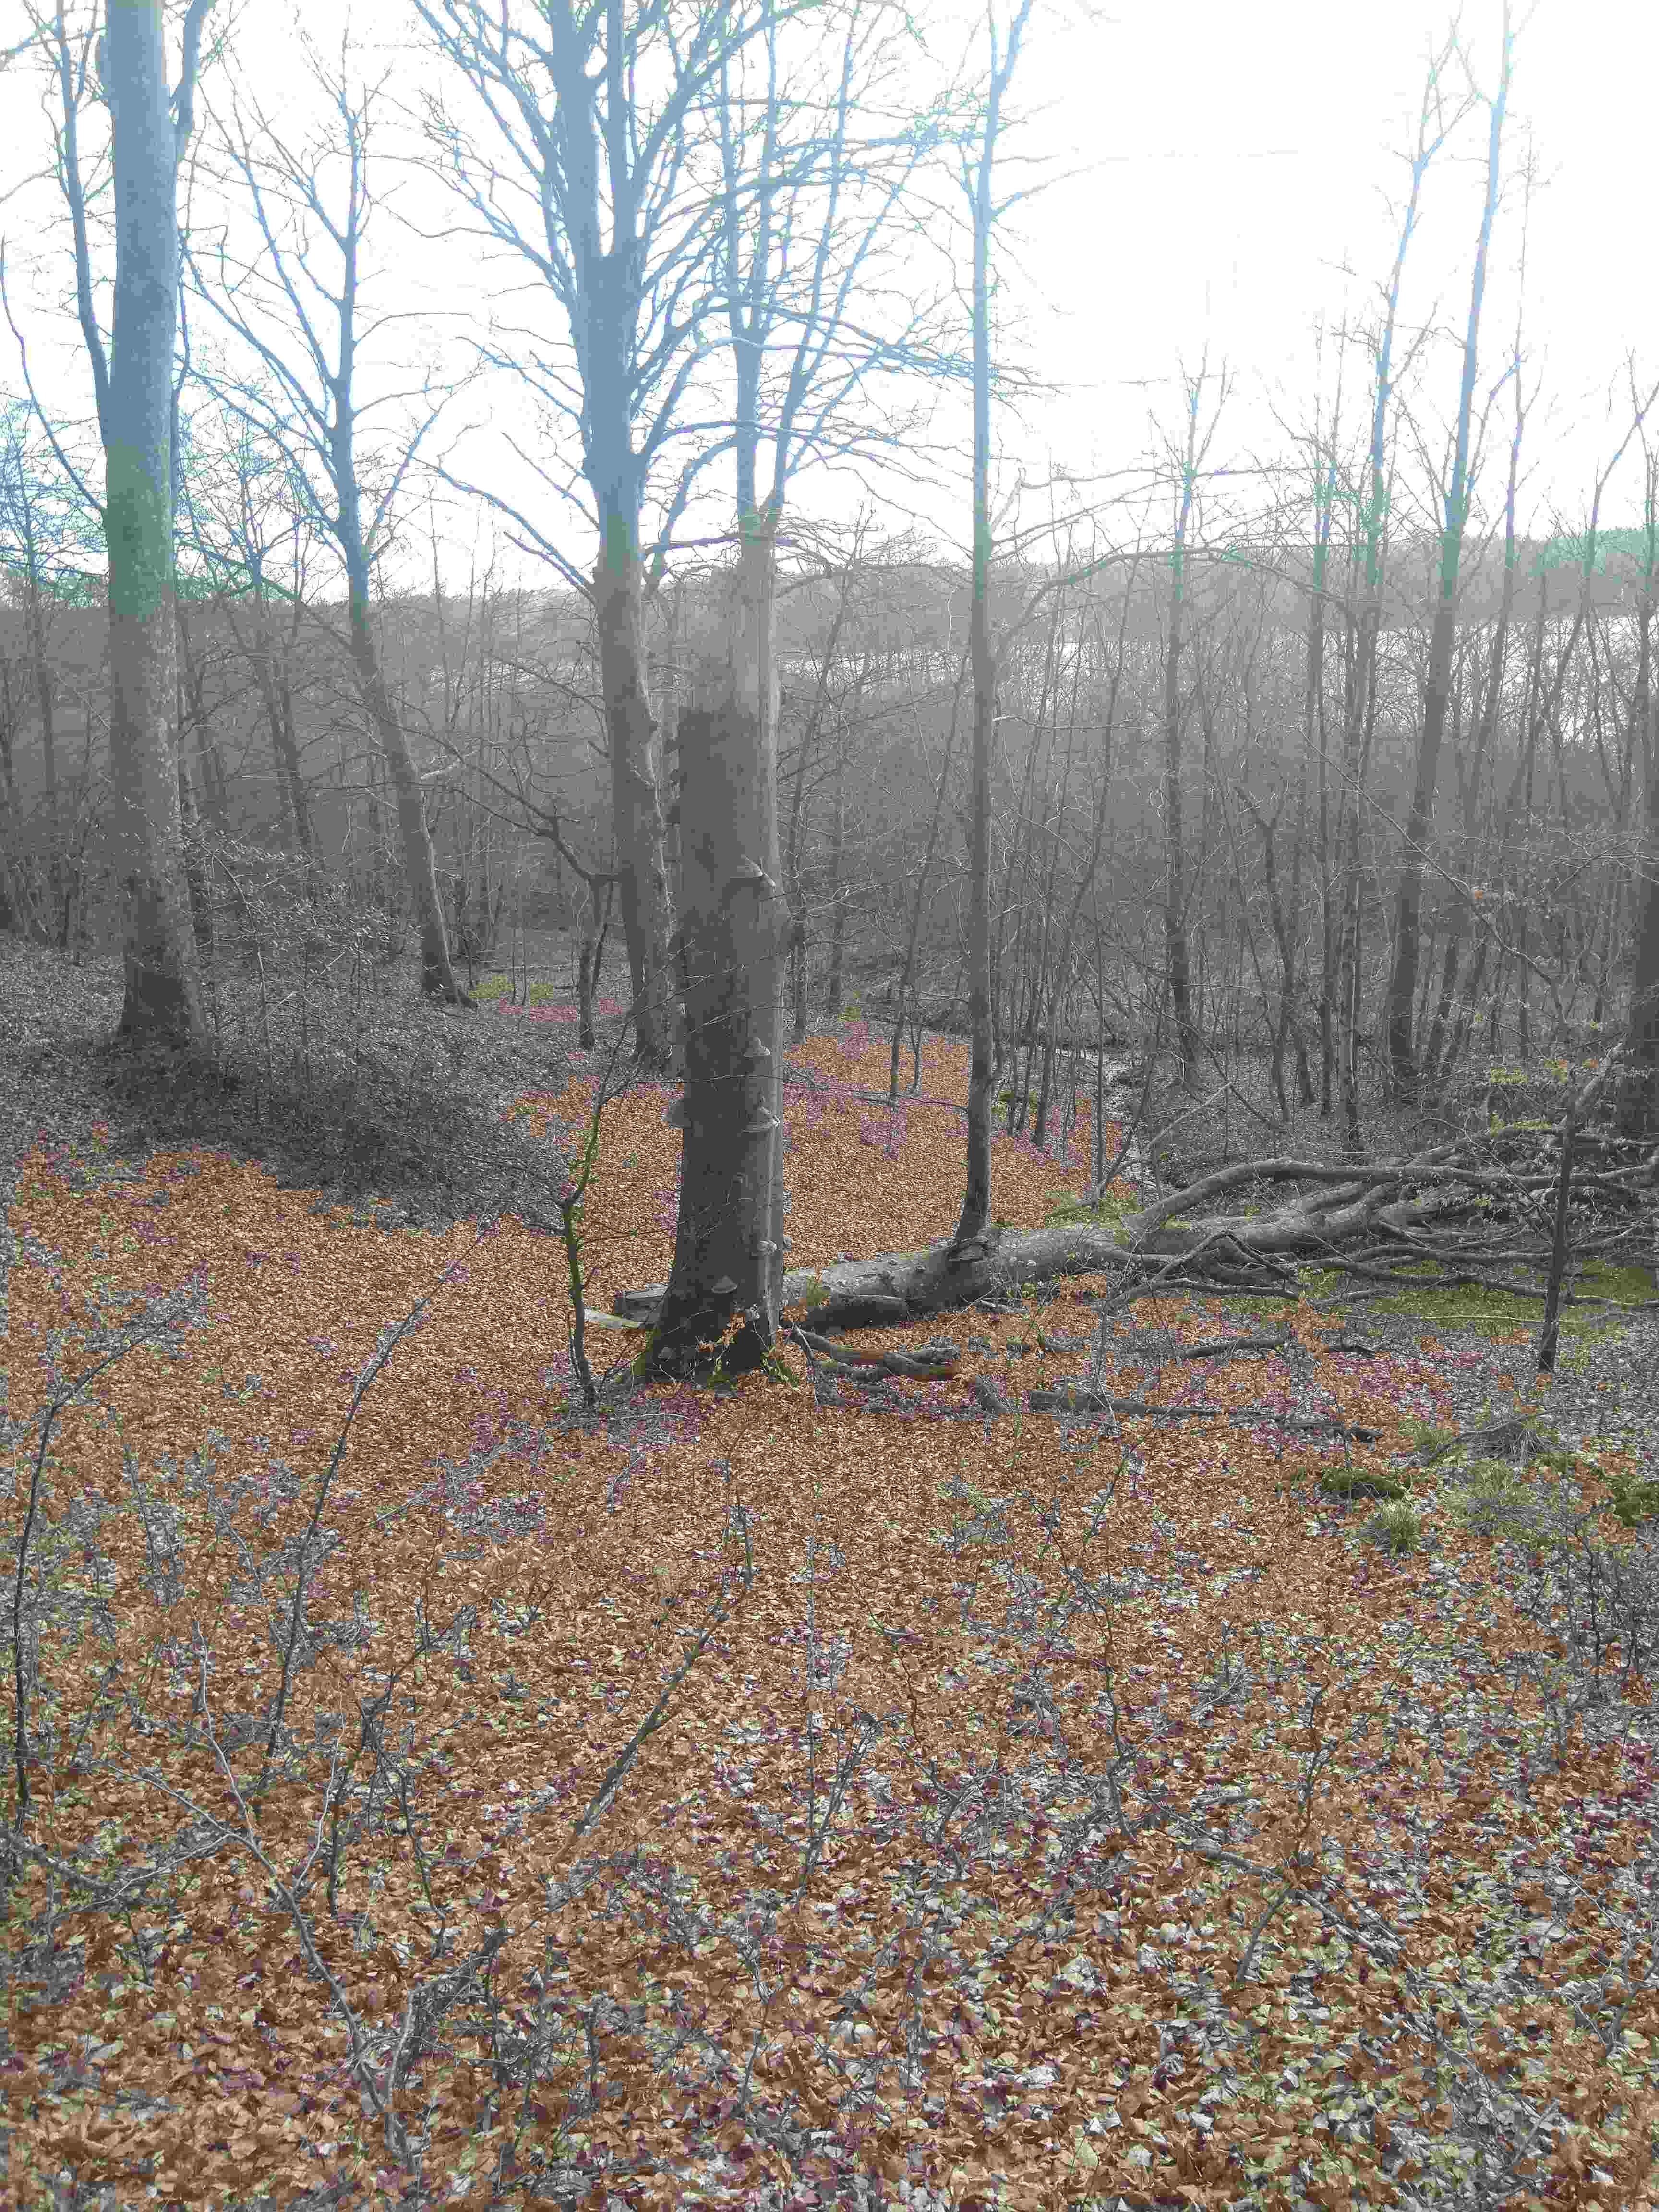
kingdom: Fungi
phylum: Basidiomycota
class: Agaricomycetes
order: Polyporales
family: Polyporaceae
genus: Fomes
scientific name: Fomes fomentarius
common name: tøndersvamp
